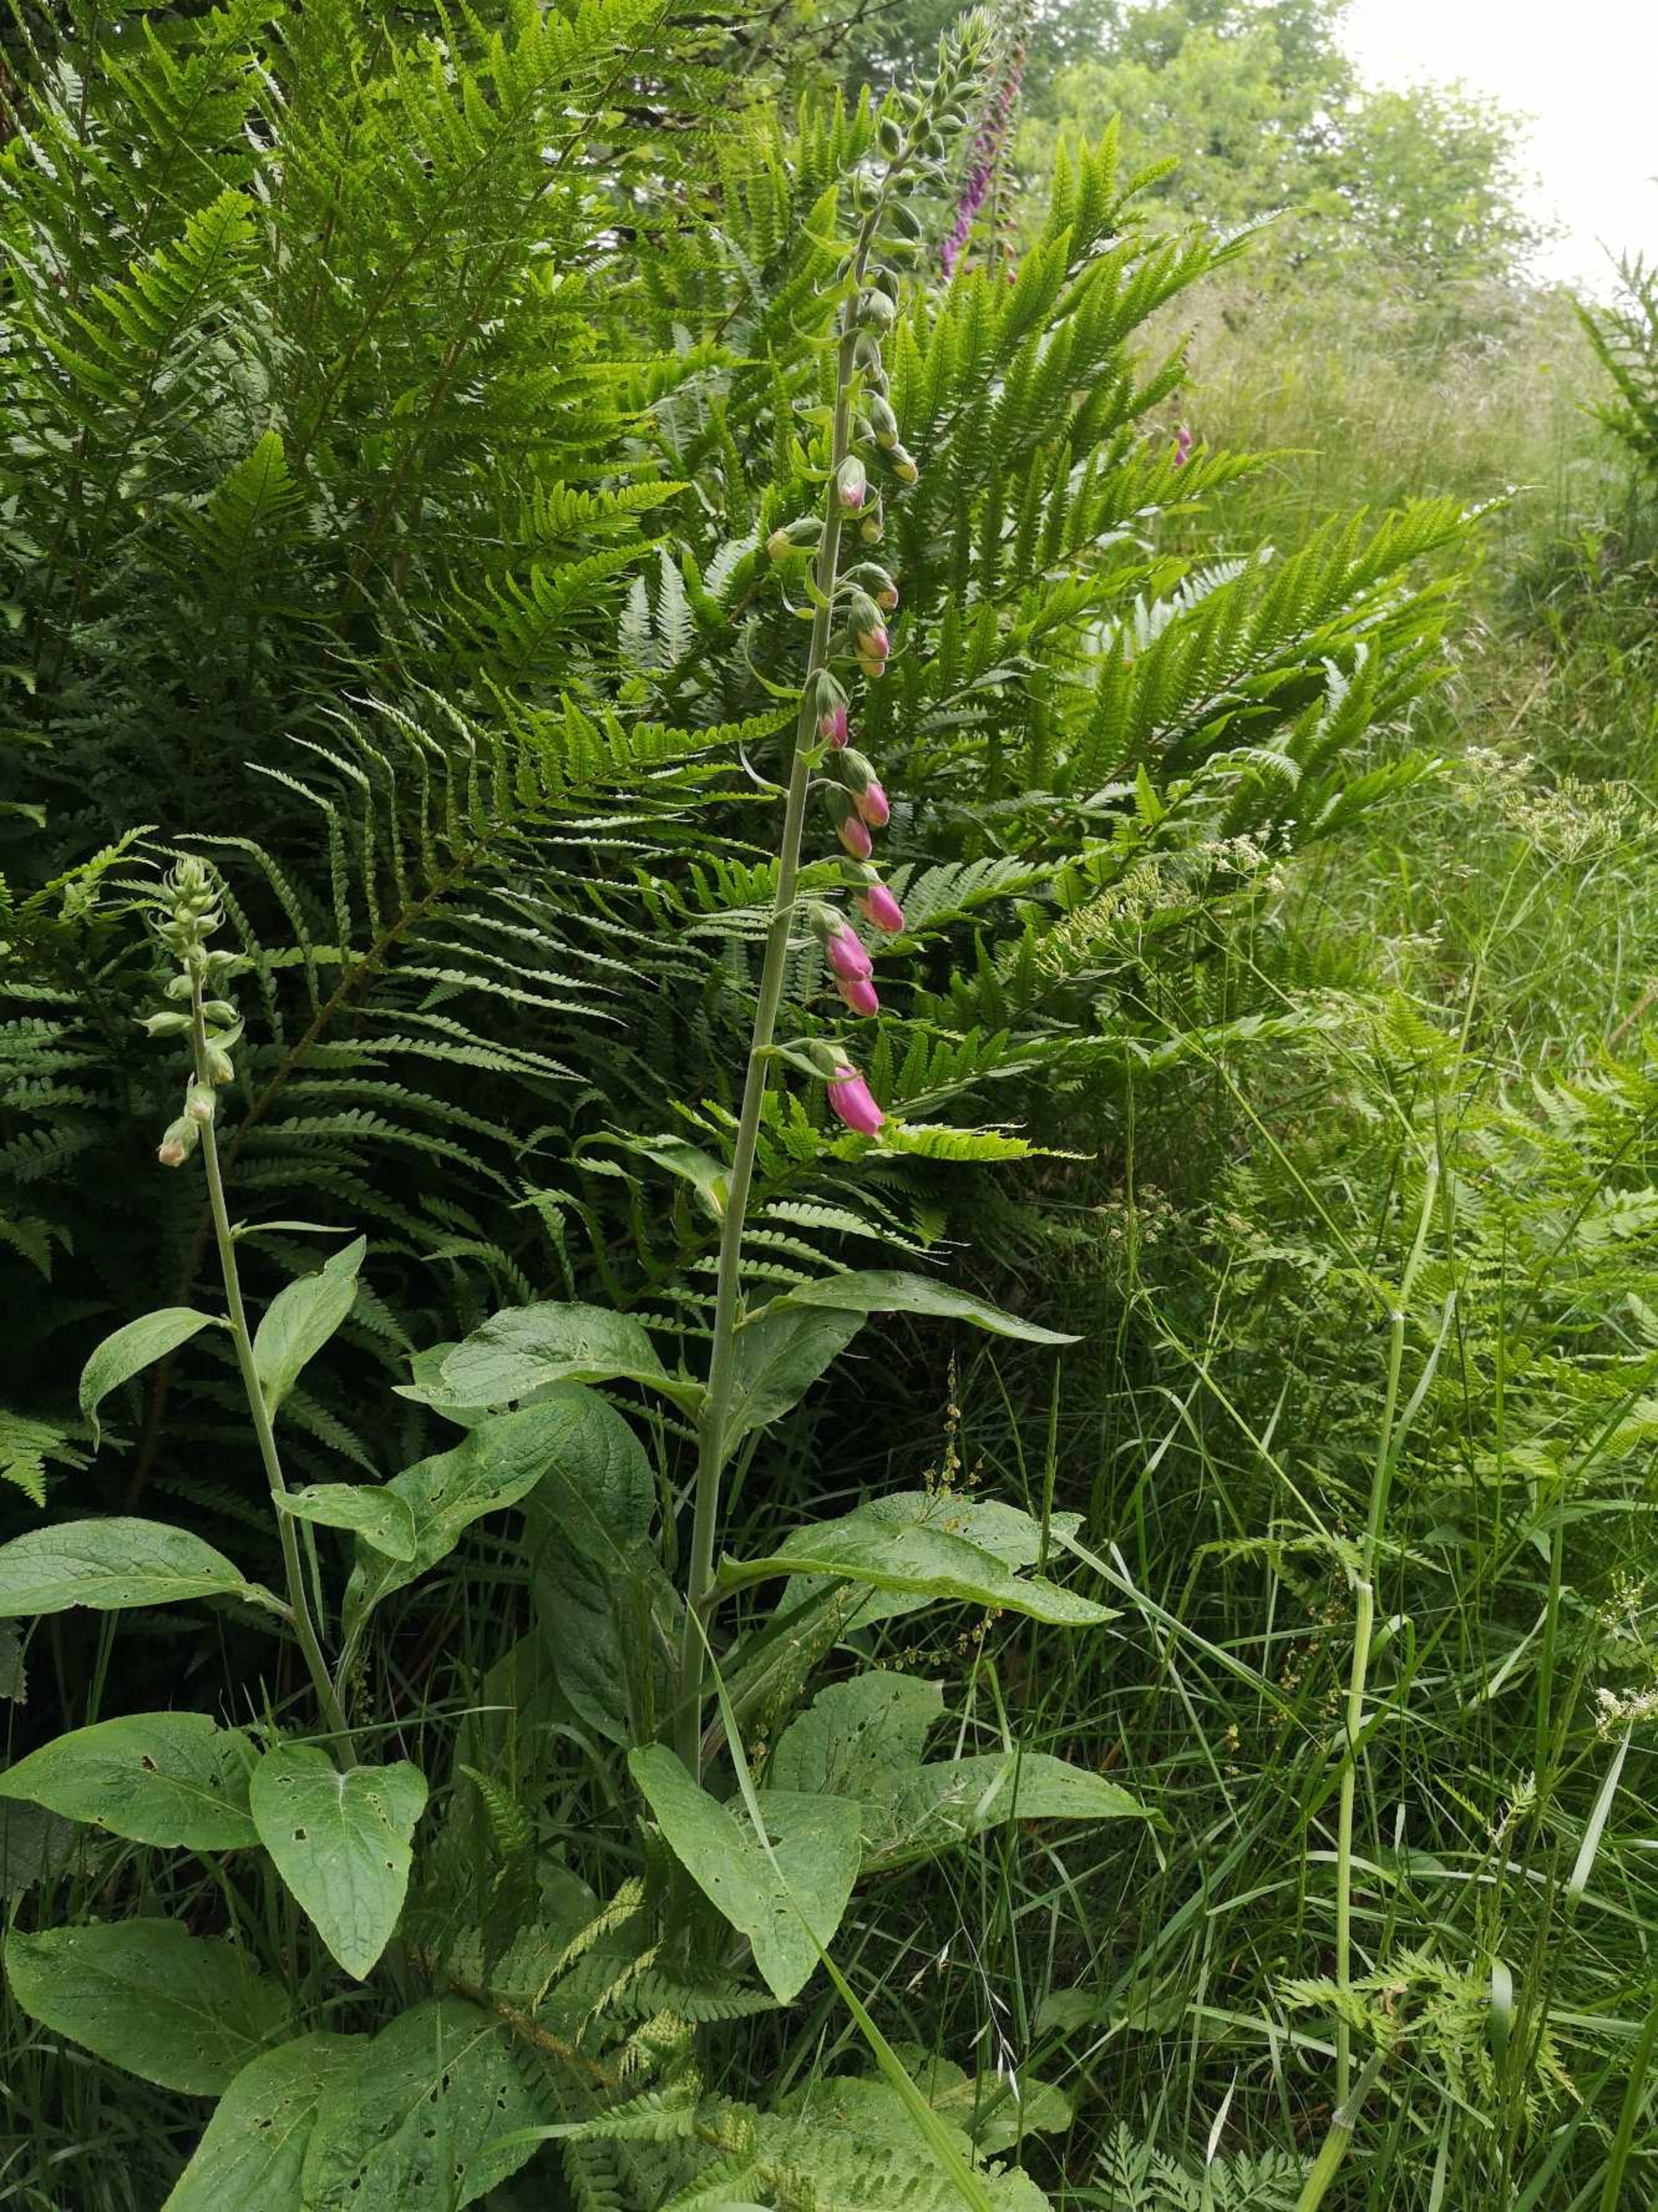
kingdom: Plantae
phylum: Tracheophyta
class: Magnoliopsida
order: Lamiales
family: Plantaginaceae
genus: Digitalis
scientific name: Digitalis purpurea
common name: Almindelig fingerbøl
